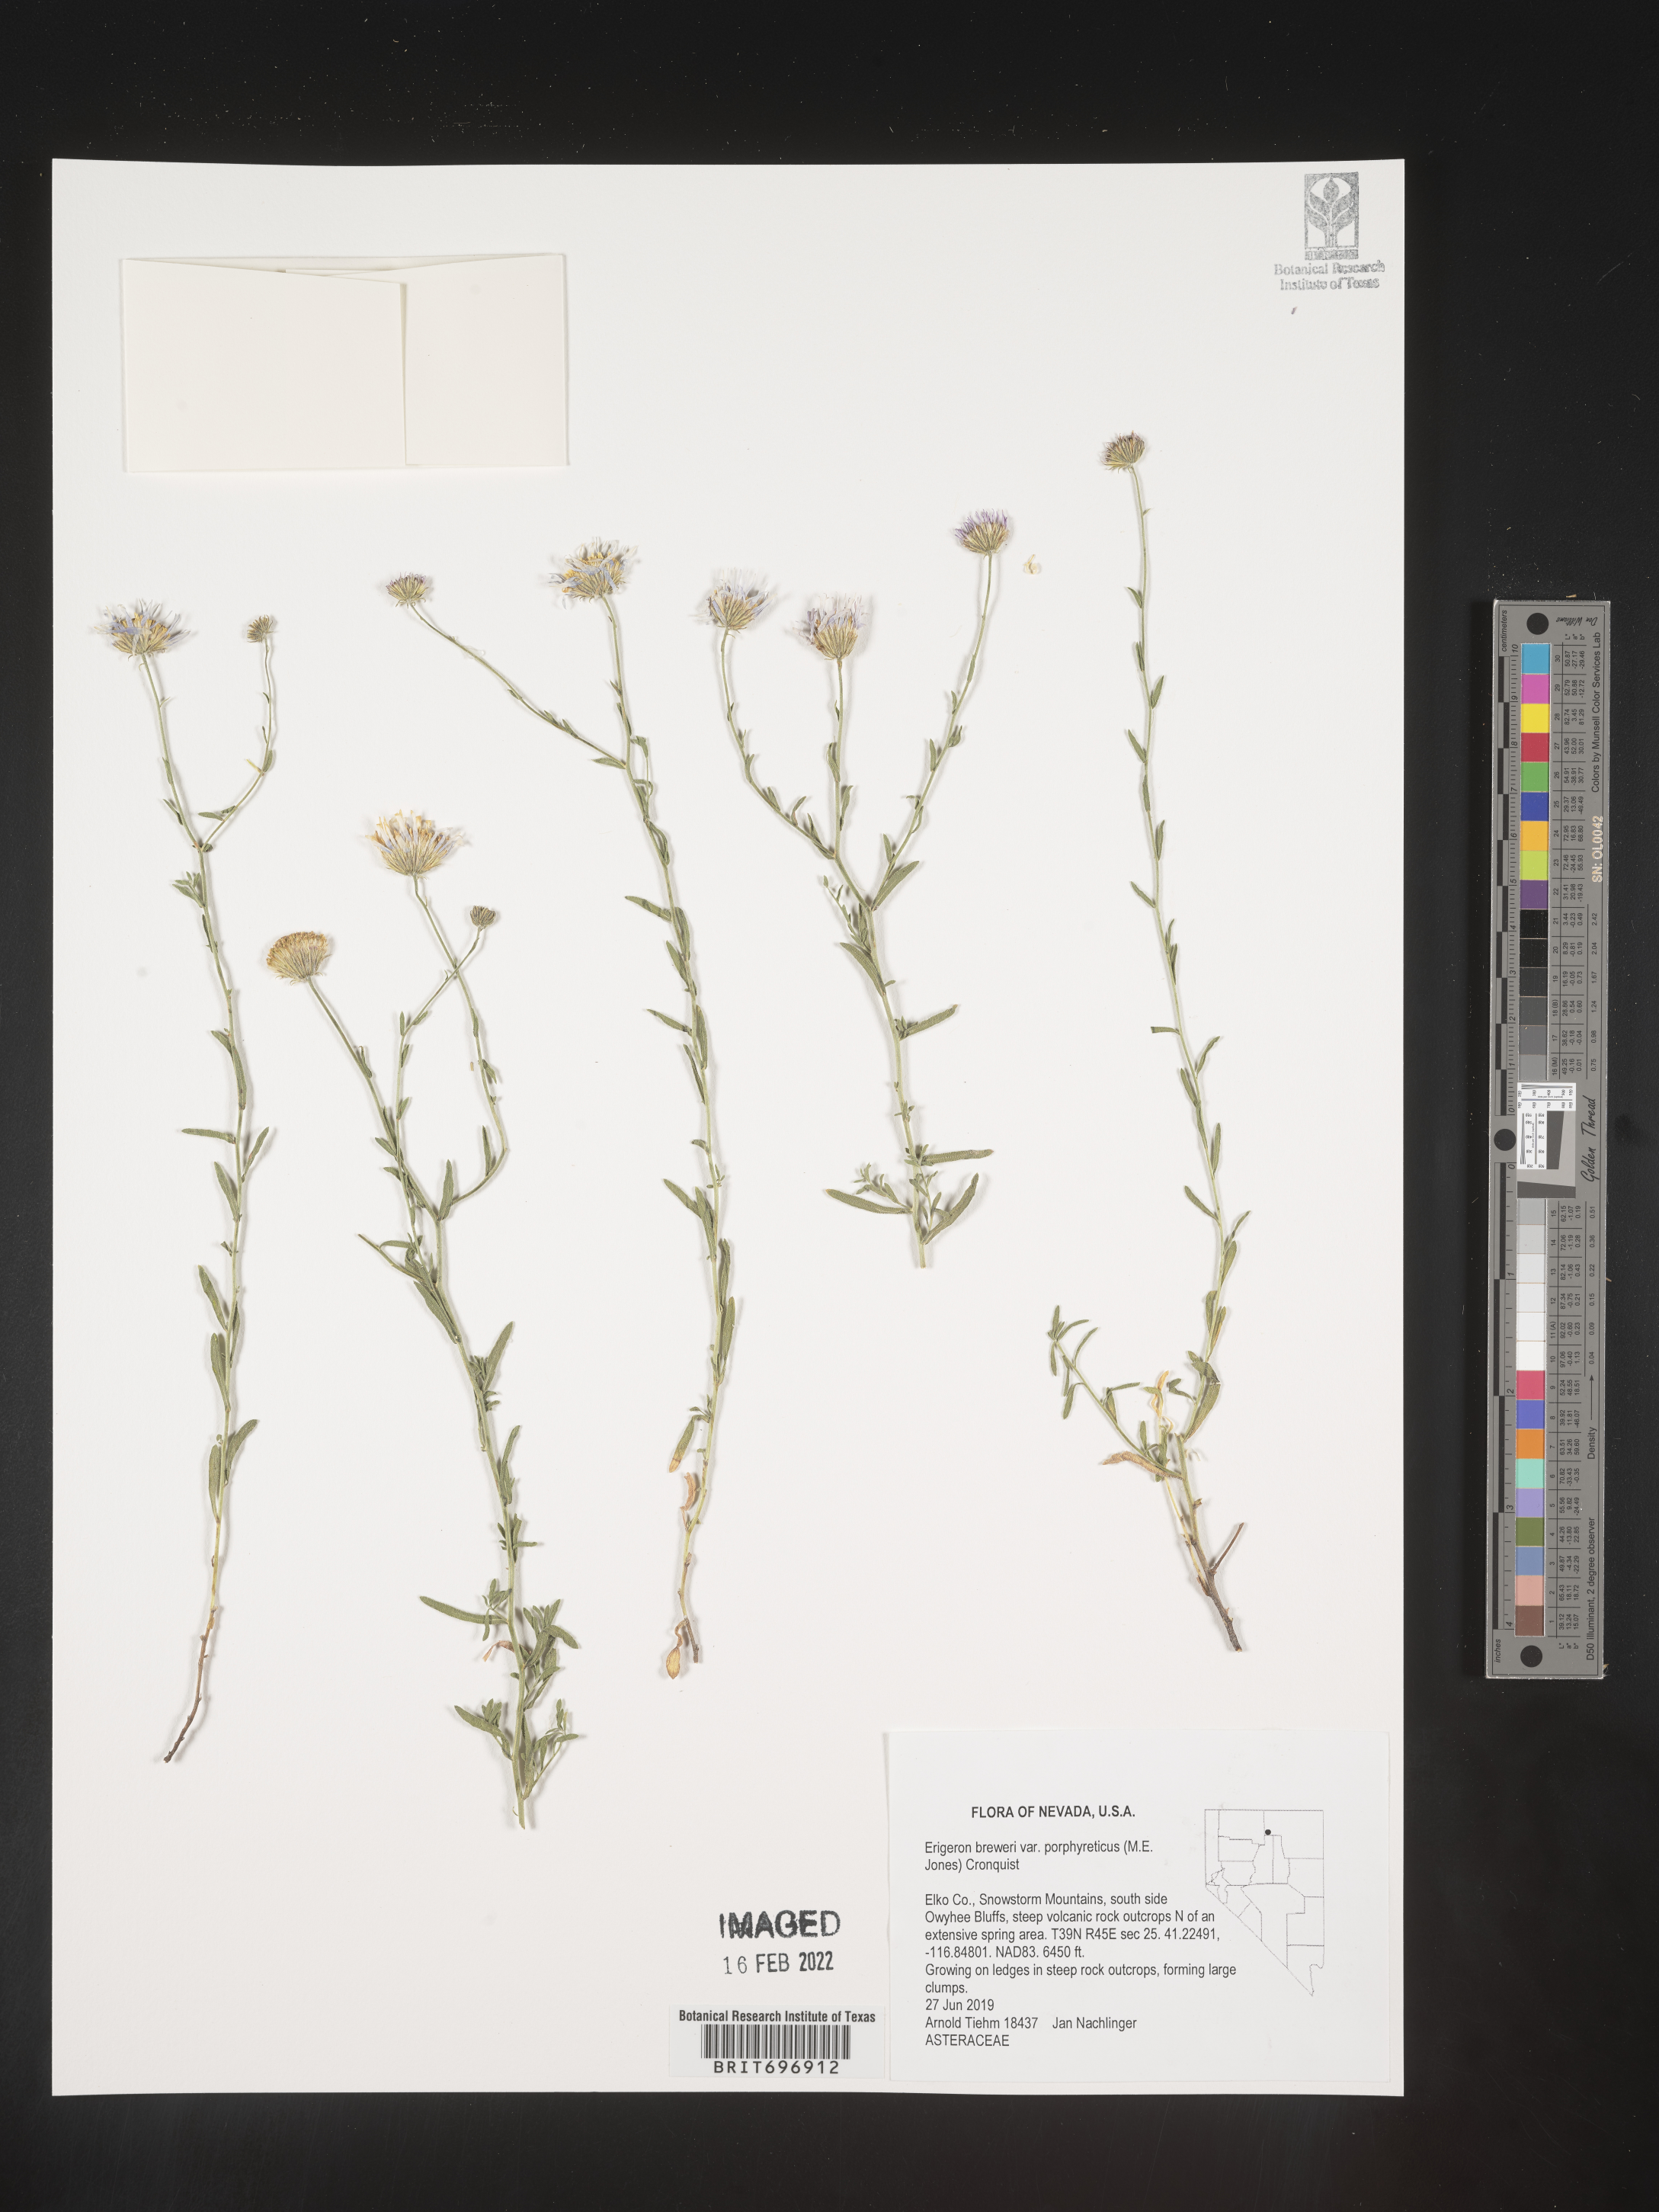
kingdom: Plantae
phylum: Tracheophyta
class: Magnoliopsida
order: Asterales
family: Asteraceae
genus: Erigeron
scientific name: Erigeron breweri
